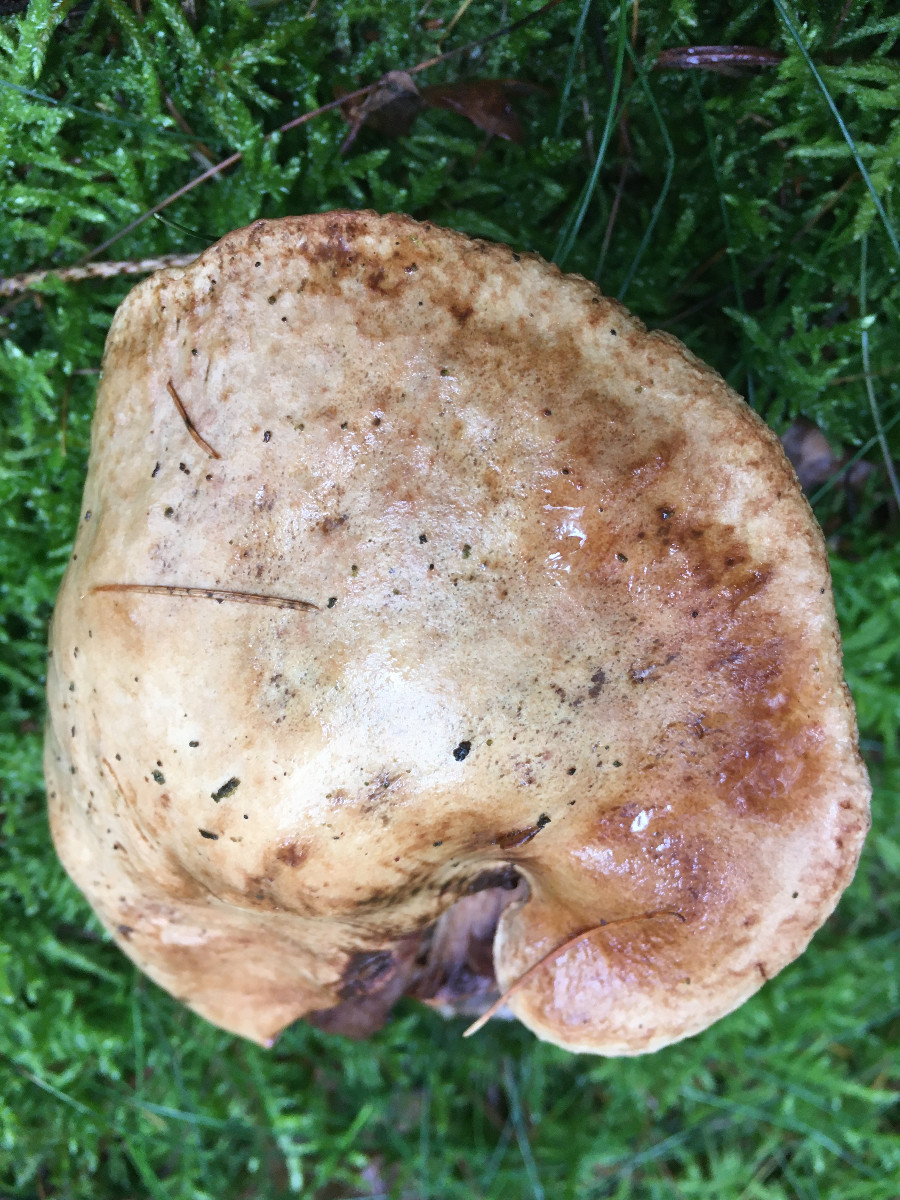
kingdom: Fungi
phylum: Basidiomycota
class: Agaricomycetes
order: Boletales
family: Paxillaceae
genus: Paxillus
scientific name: Paxillus involutus
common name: almindelig netbladhat
